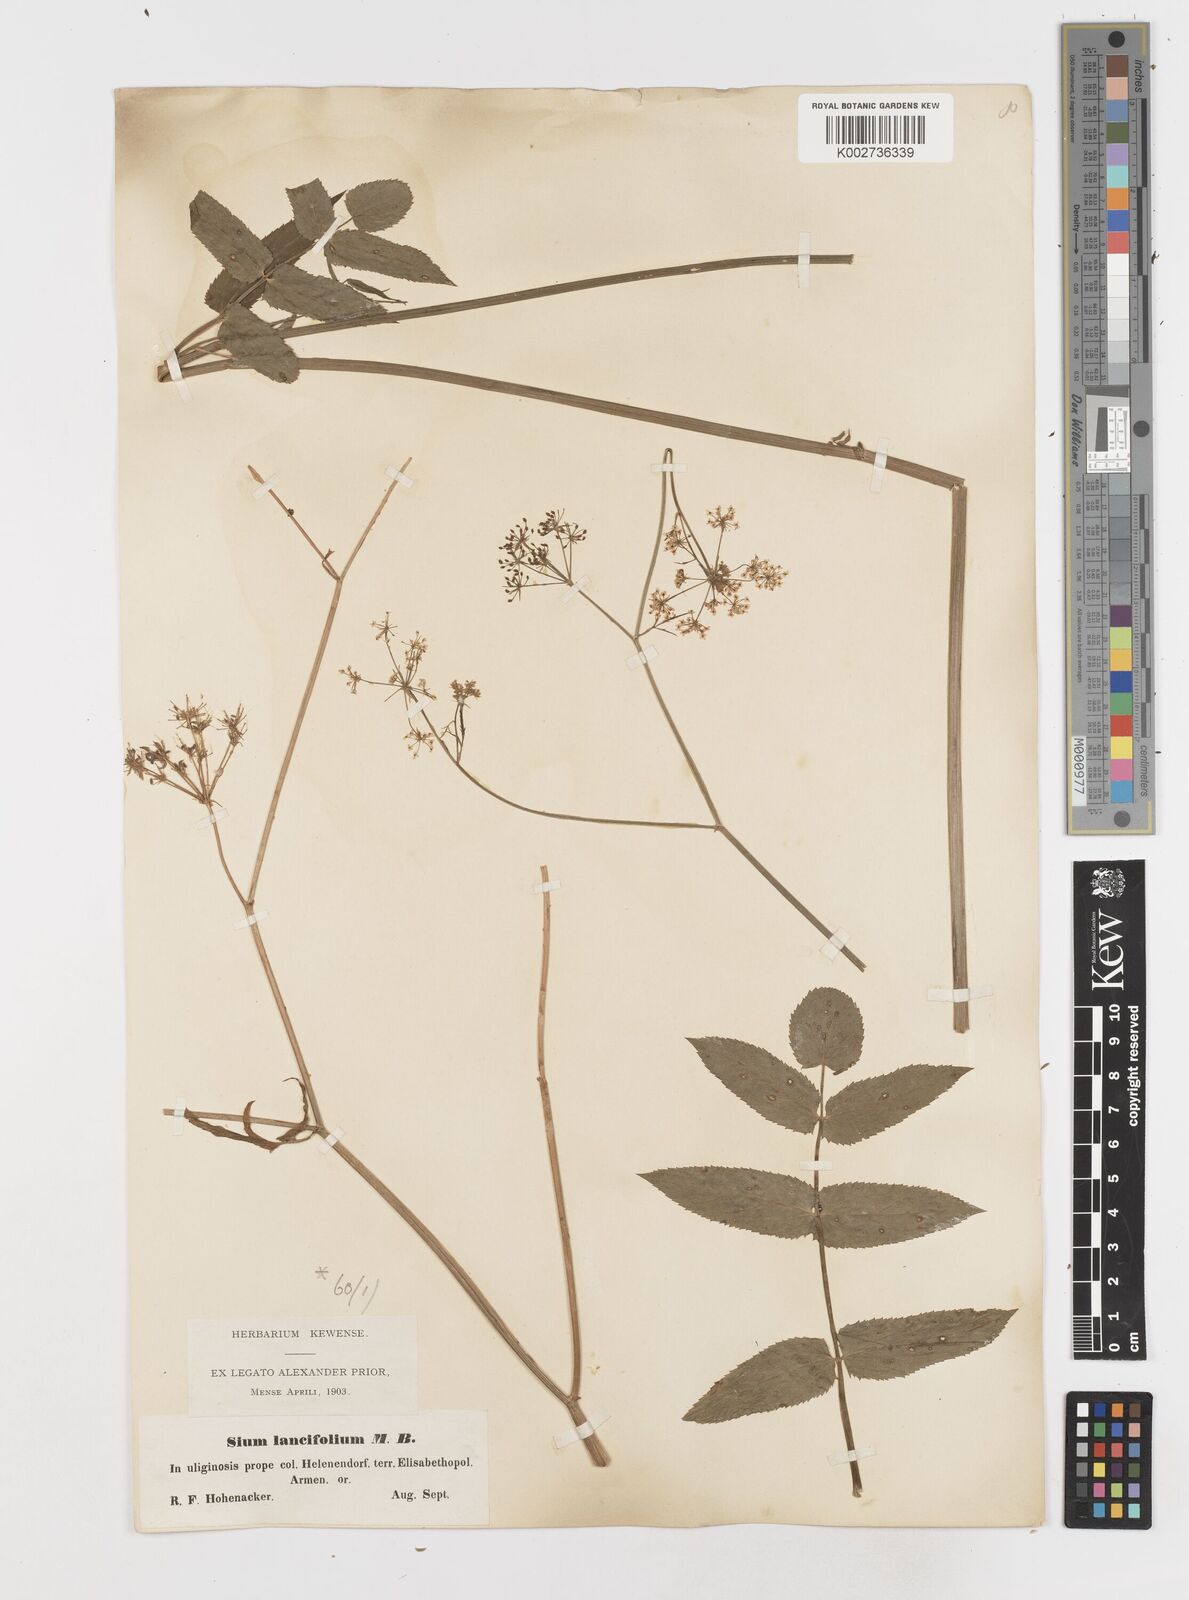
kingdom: Plantae
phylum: Tracheophyta
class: Magnoliopsida
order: Apiales
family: Apiaceae
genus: Sium
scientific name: Sium sisarum
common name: Skirret
